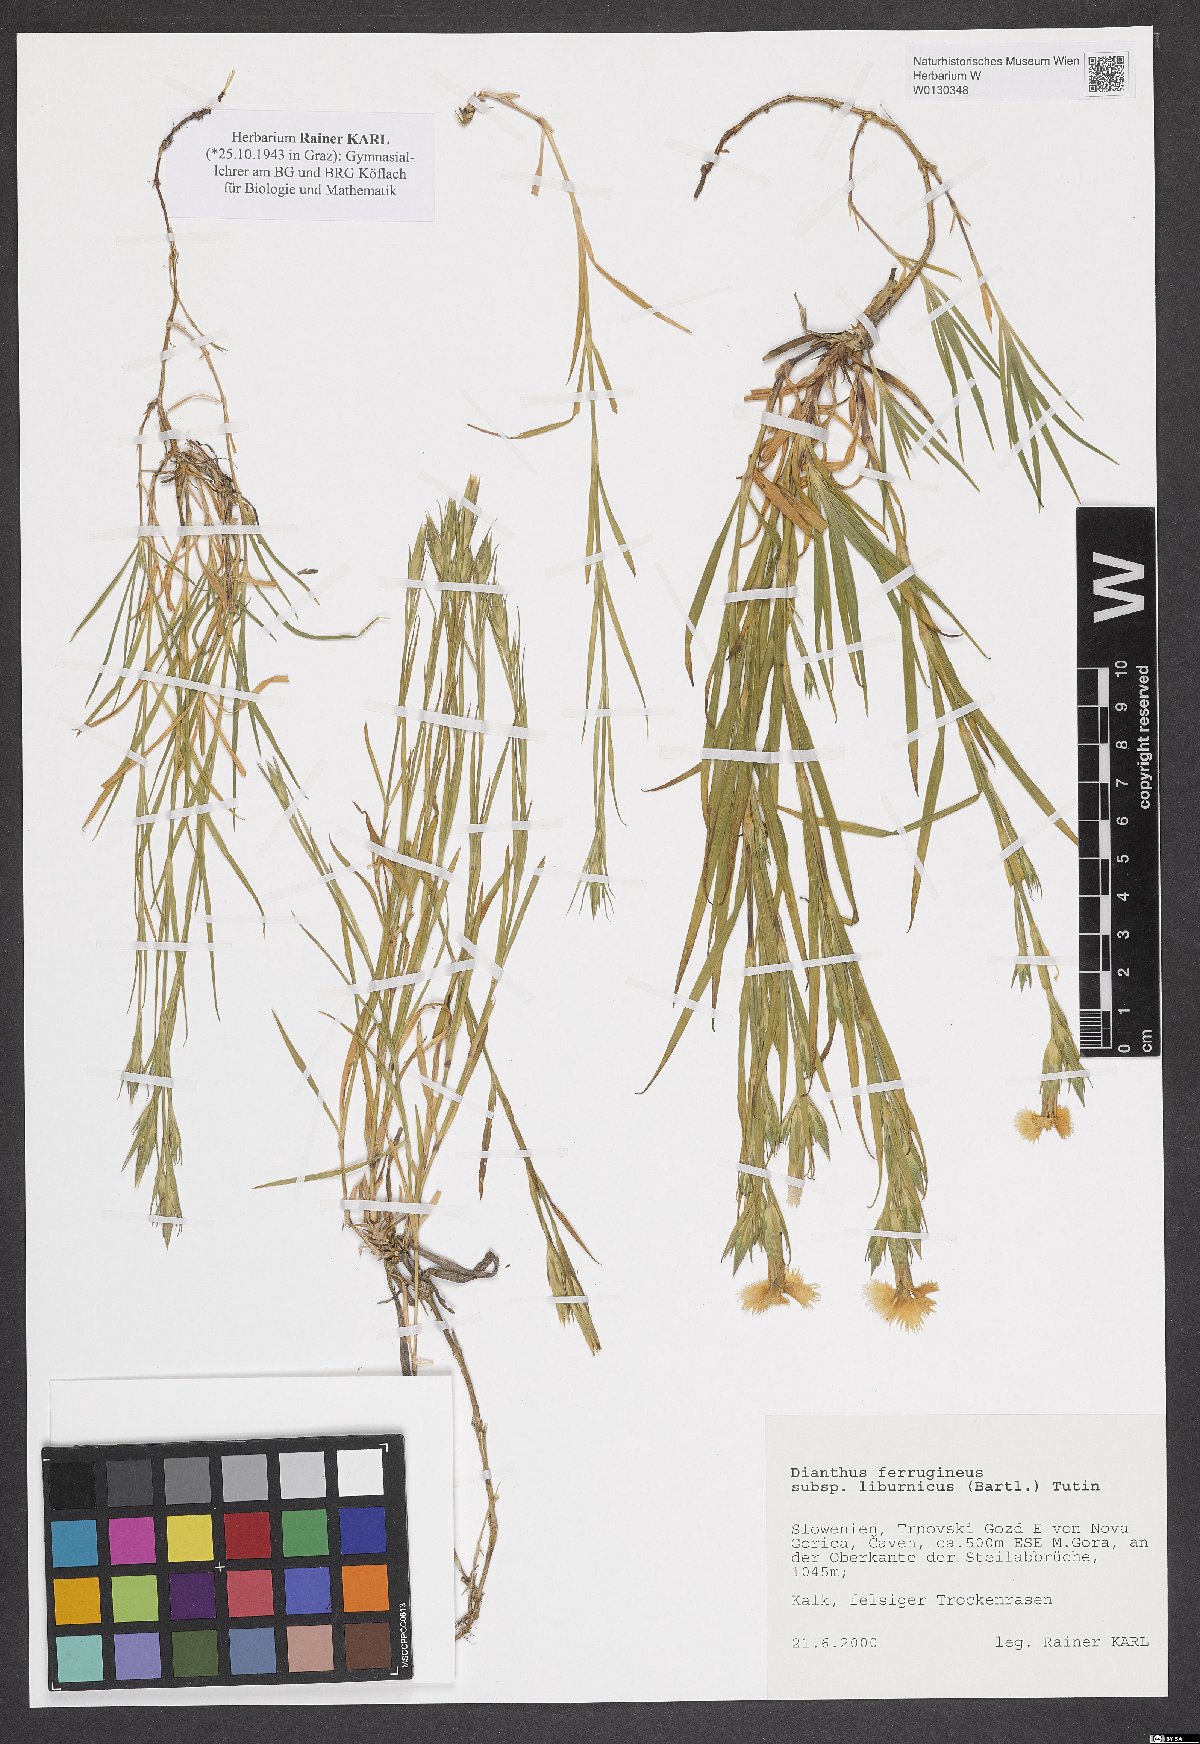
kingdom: Plantae
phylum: Tracheophyta
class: Magnoliopsida
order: Caryophyllales
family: Caryophyllaceae
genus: Dianthus
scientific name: Dianthus balbisii
